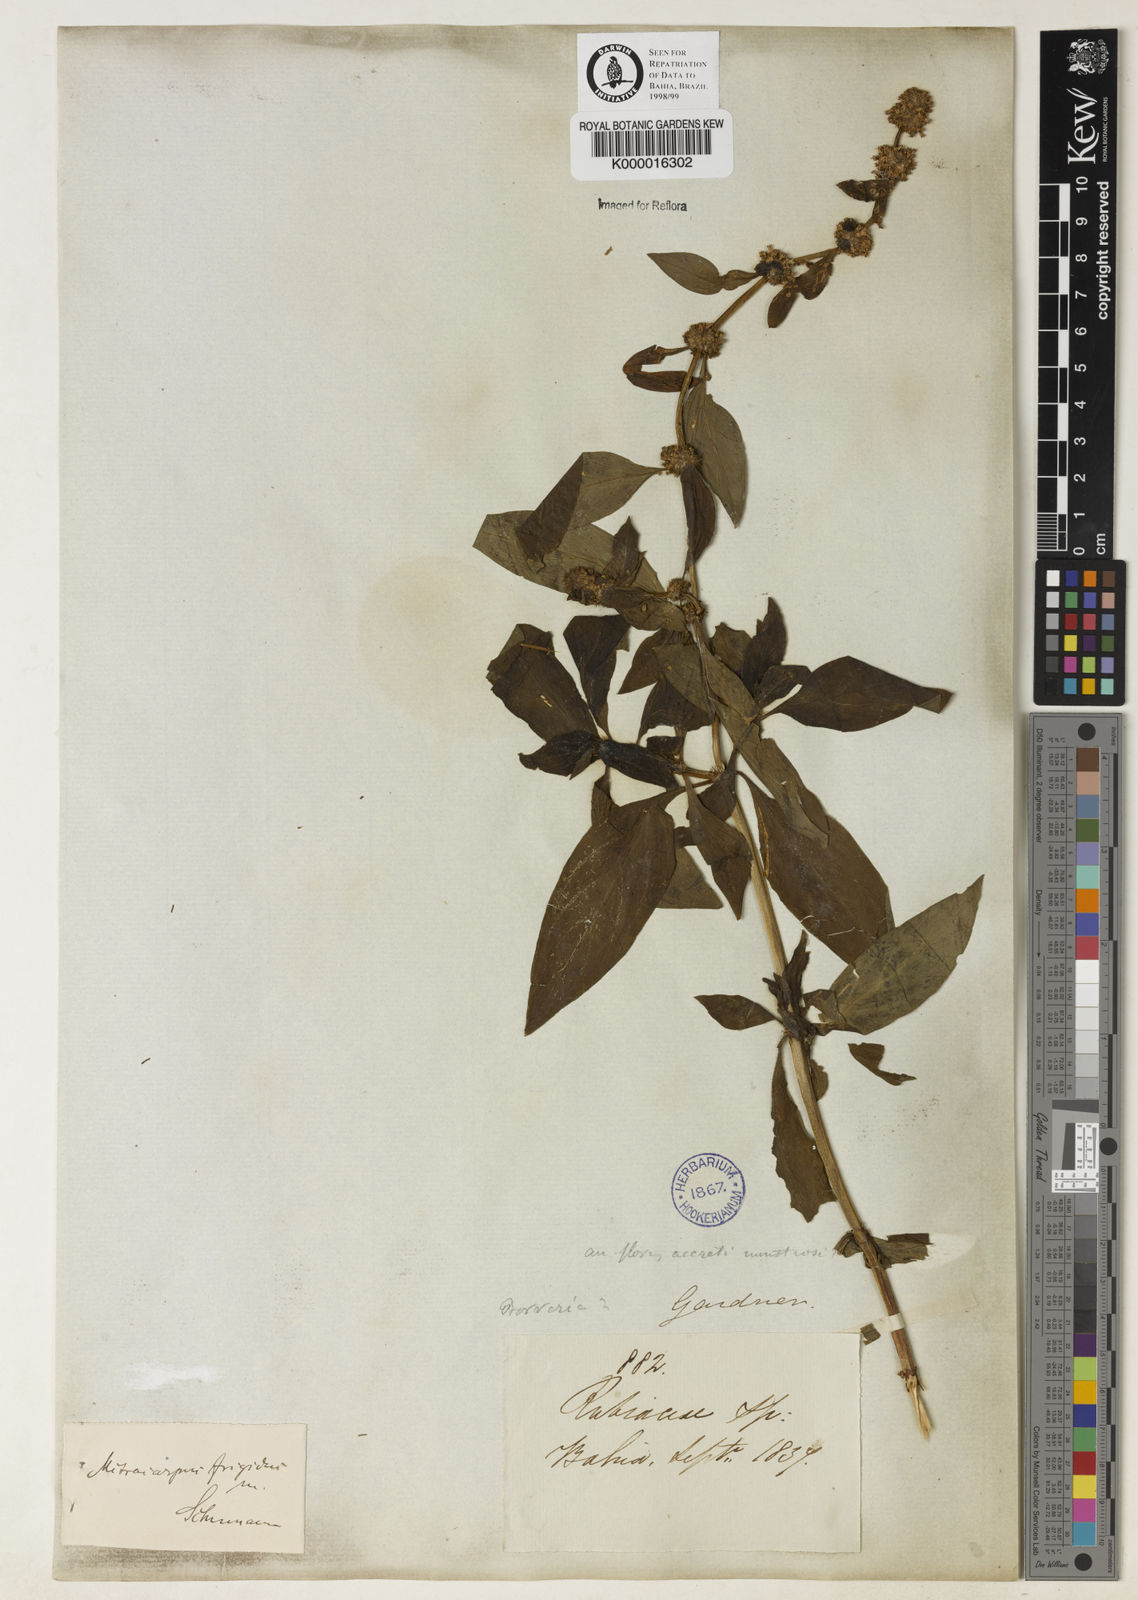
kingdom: Plantae
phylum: Tracheophyta
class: Magnoliopsida
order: Gentianales
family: Rubiaceae
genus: Mitracarpus
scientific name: Mitracarpus
